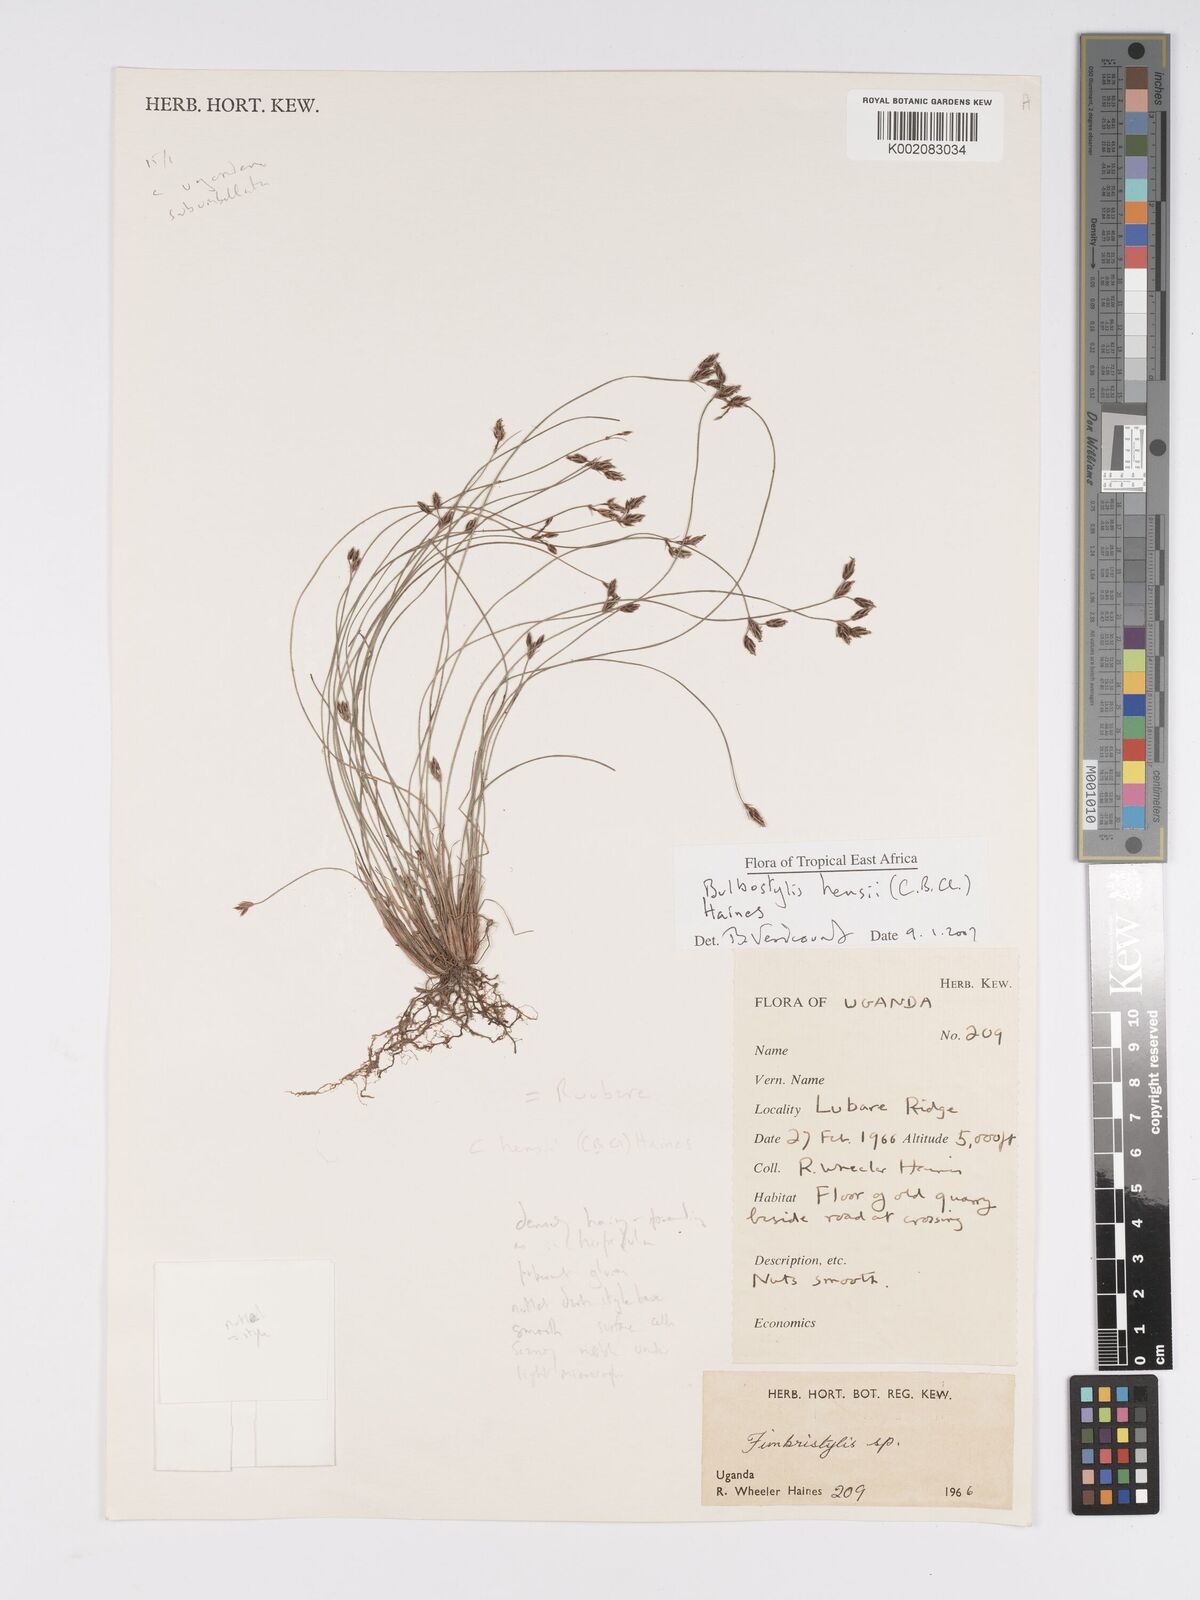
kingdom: Plantae
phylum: Tracheophyta
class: Liliopsida
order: Poales
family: Cyperaceae
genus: Bulbostylis
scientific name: Bulbostylis hensii
